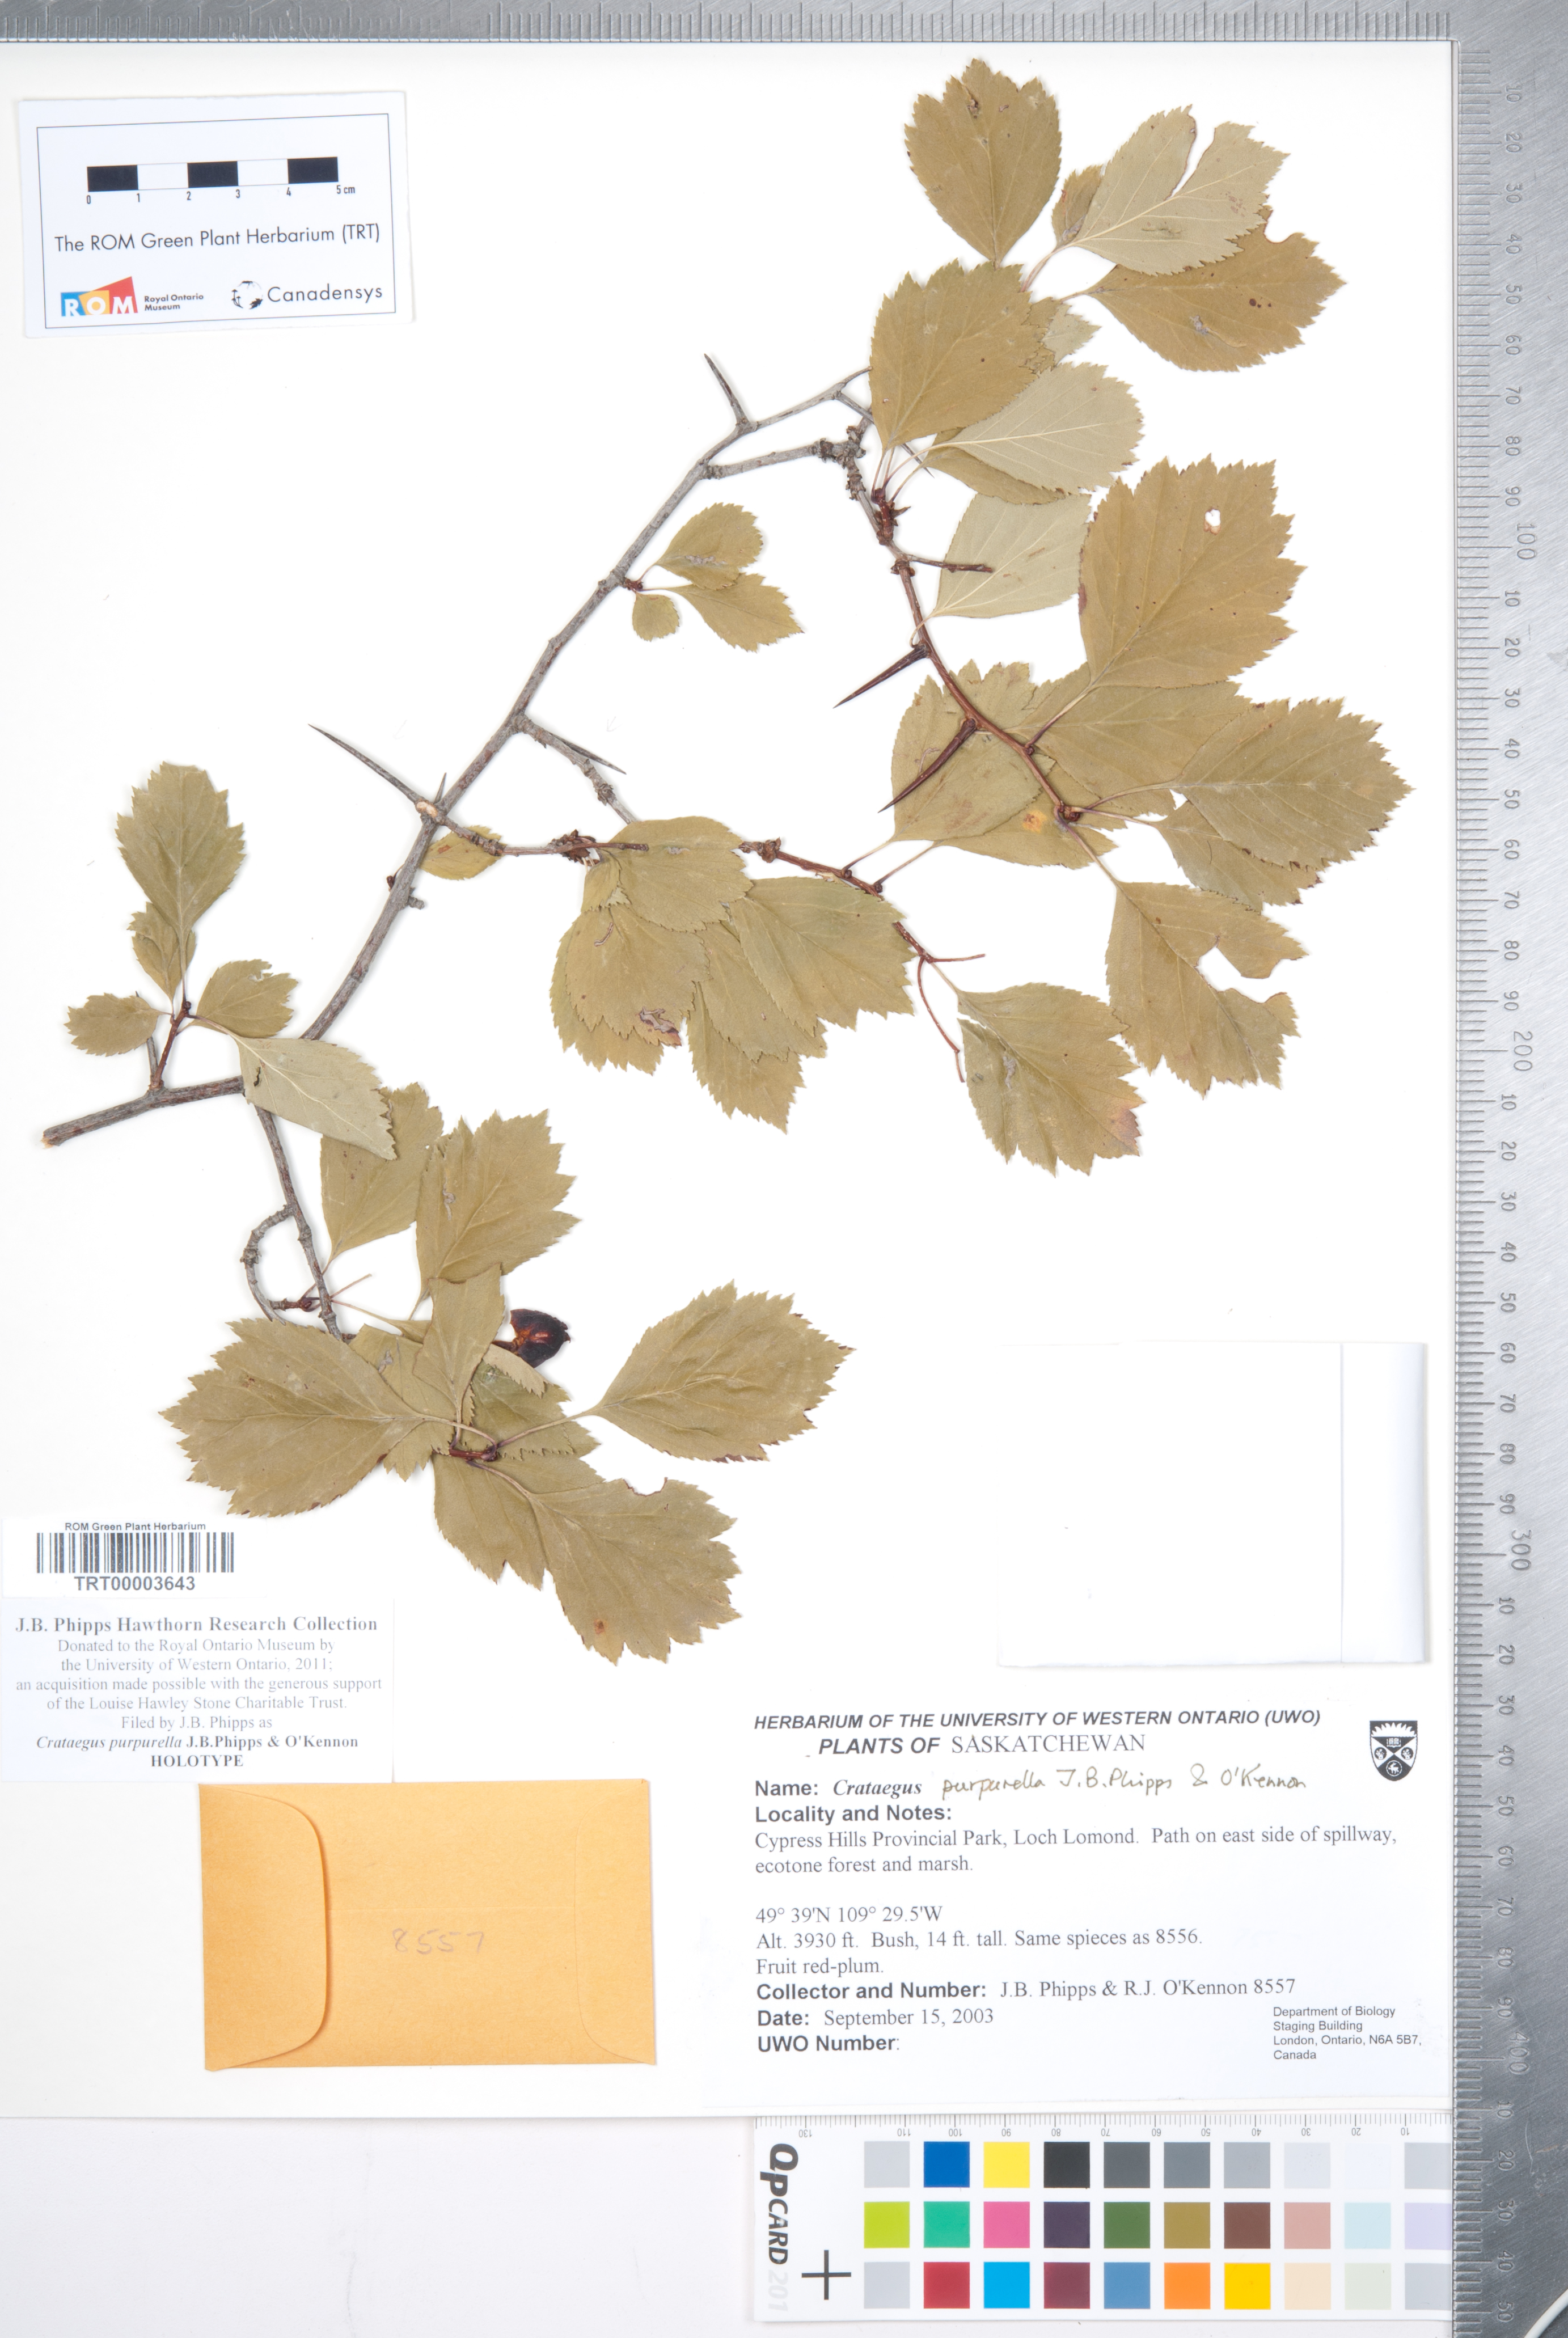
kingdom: Plantae
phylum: Tracheophyta
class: Magnoliopsida
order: Rosales
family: Rosaceae
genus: Crataegus
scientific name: Crataegus purpurella
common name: Loch lomond hawthorn
